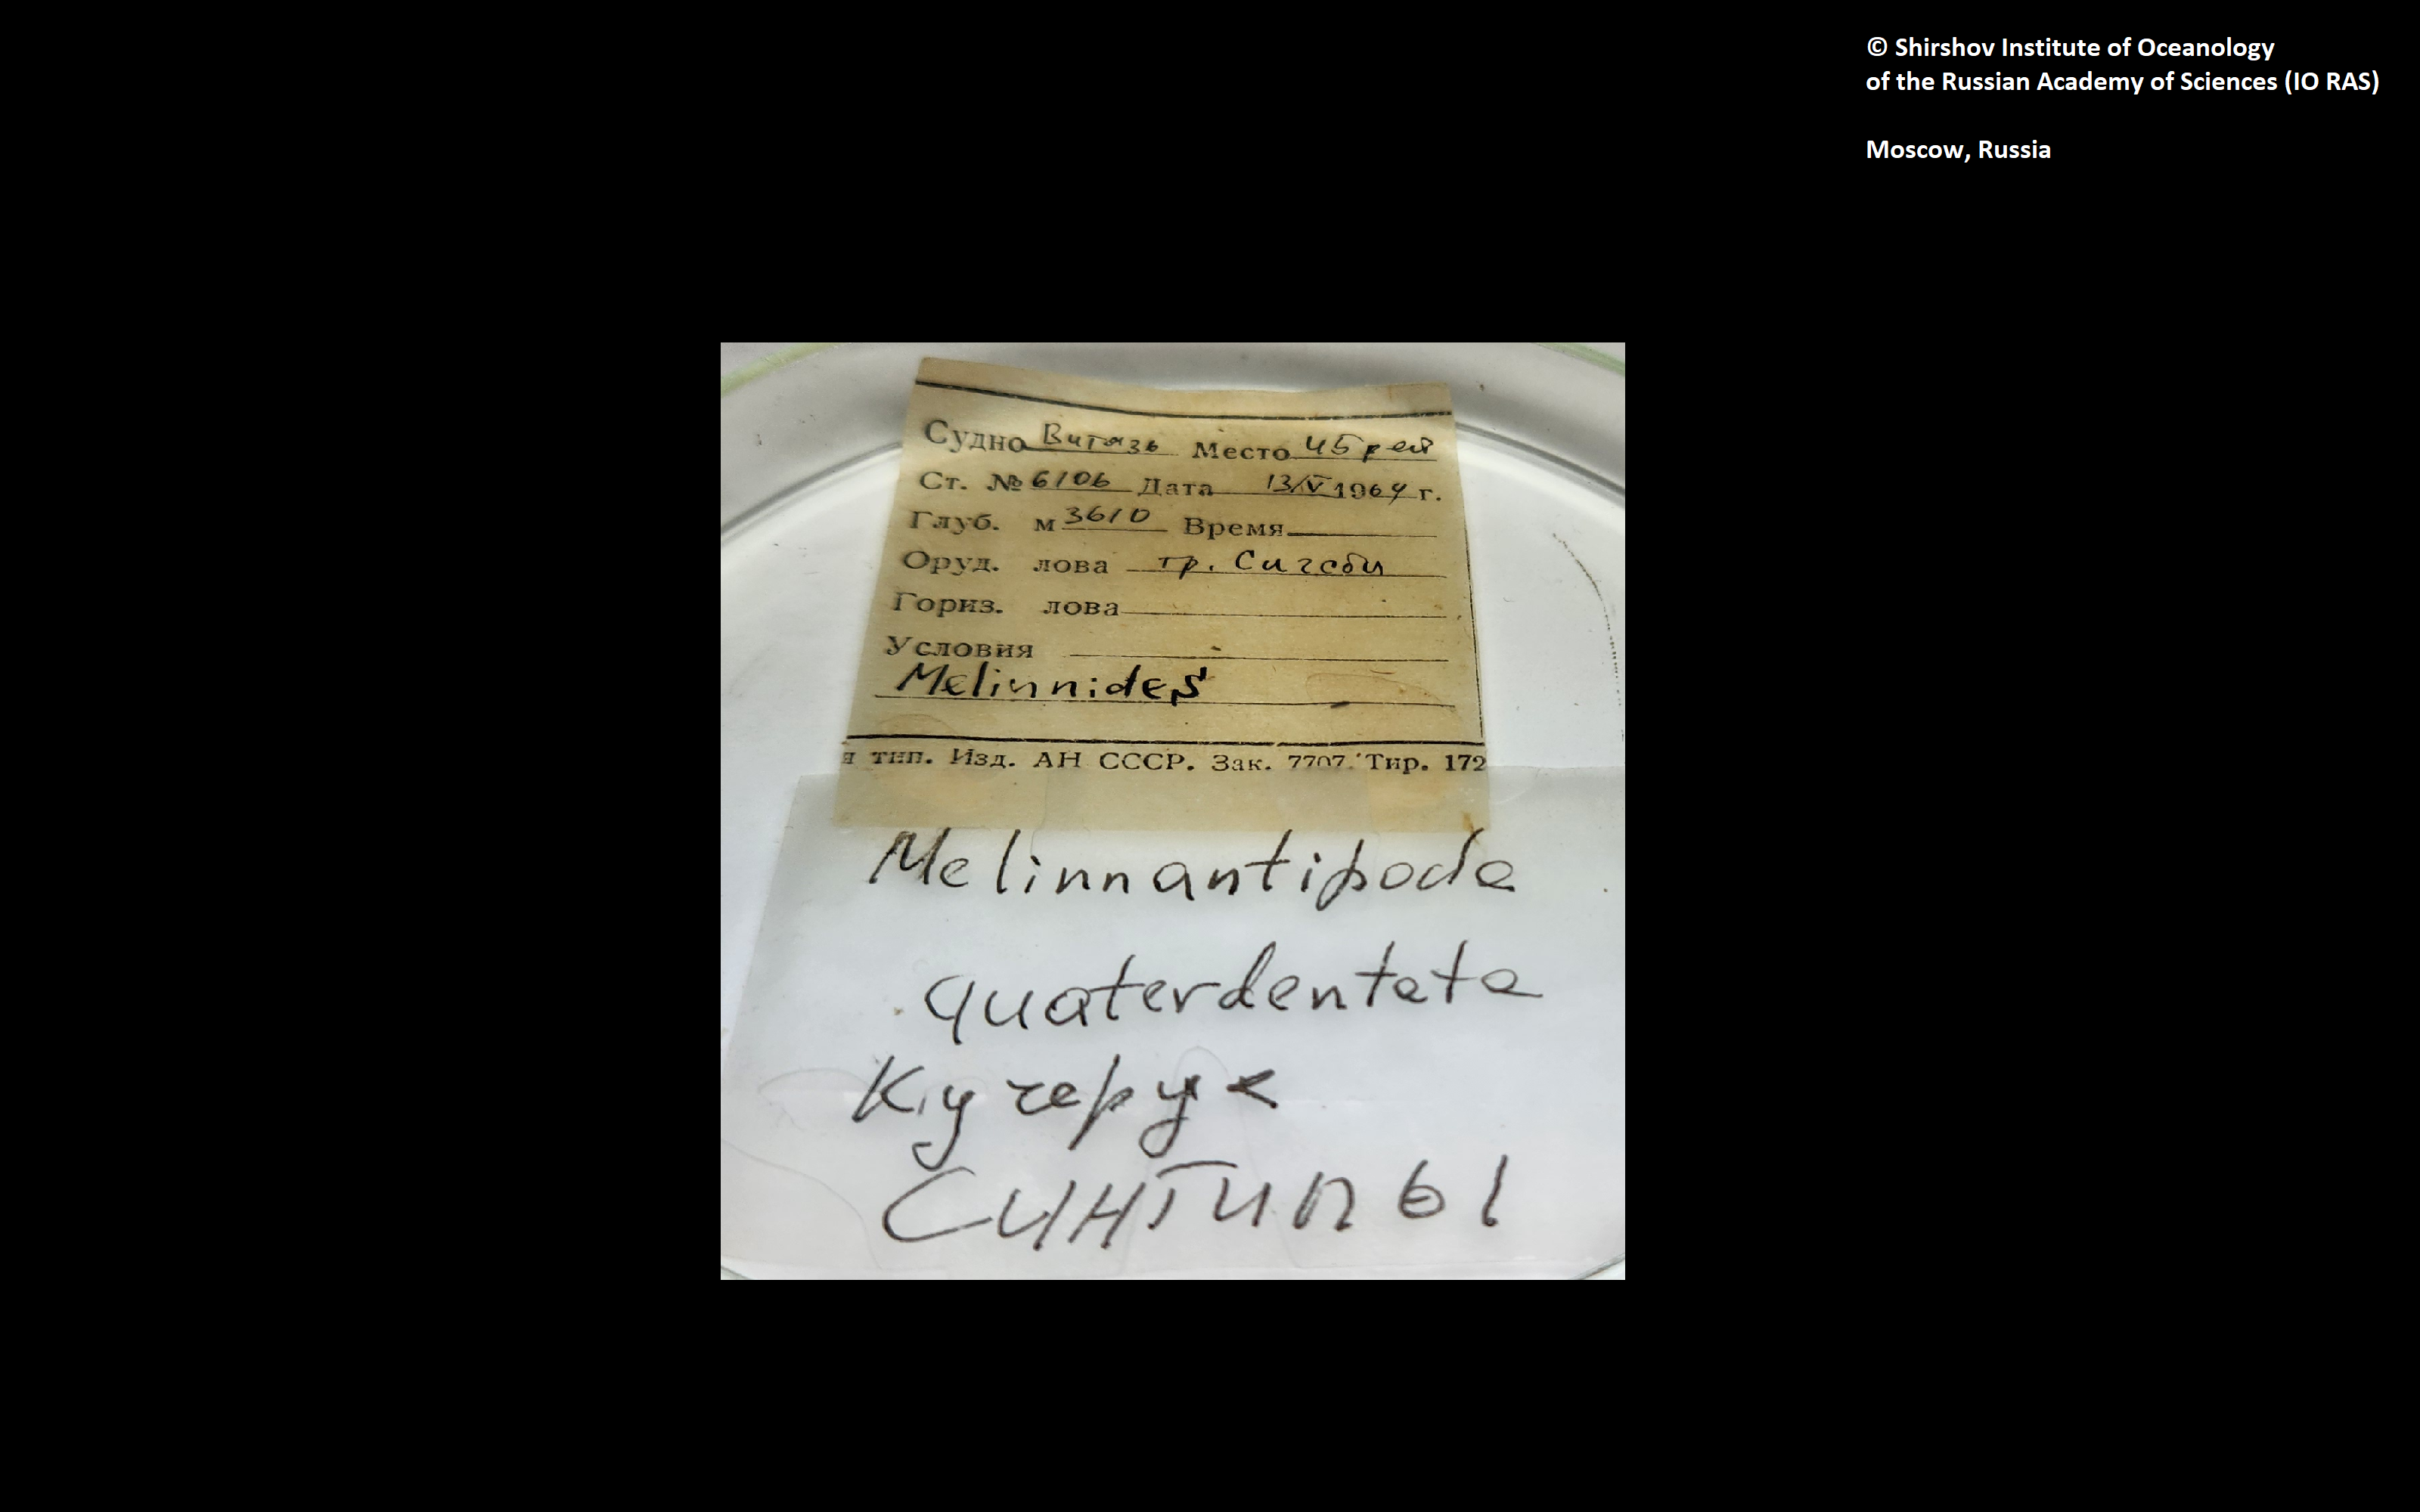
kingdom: Animalia
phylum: Annelida
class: Polychaeta
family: Melinnidae
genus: Melinantipoda
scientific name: Melinantipoda
